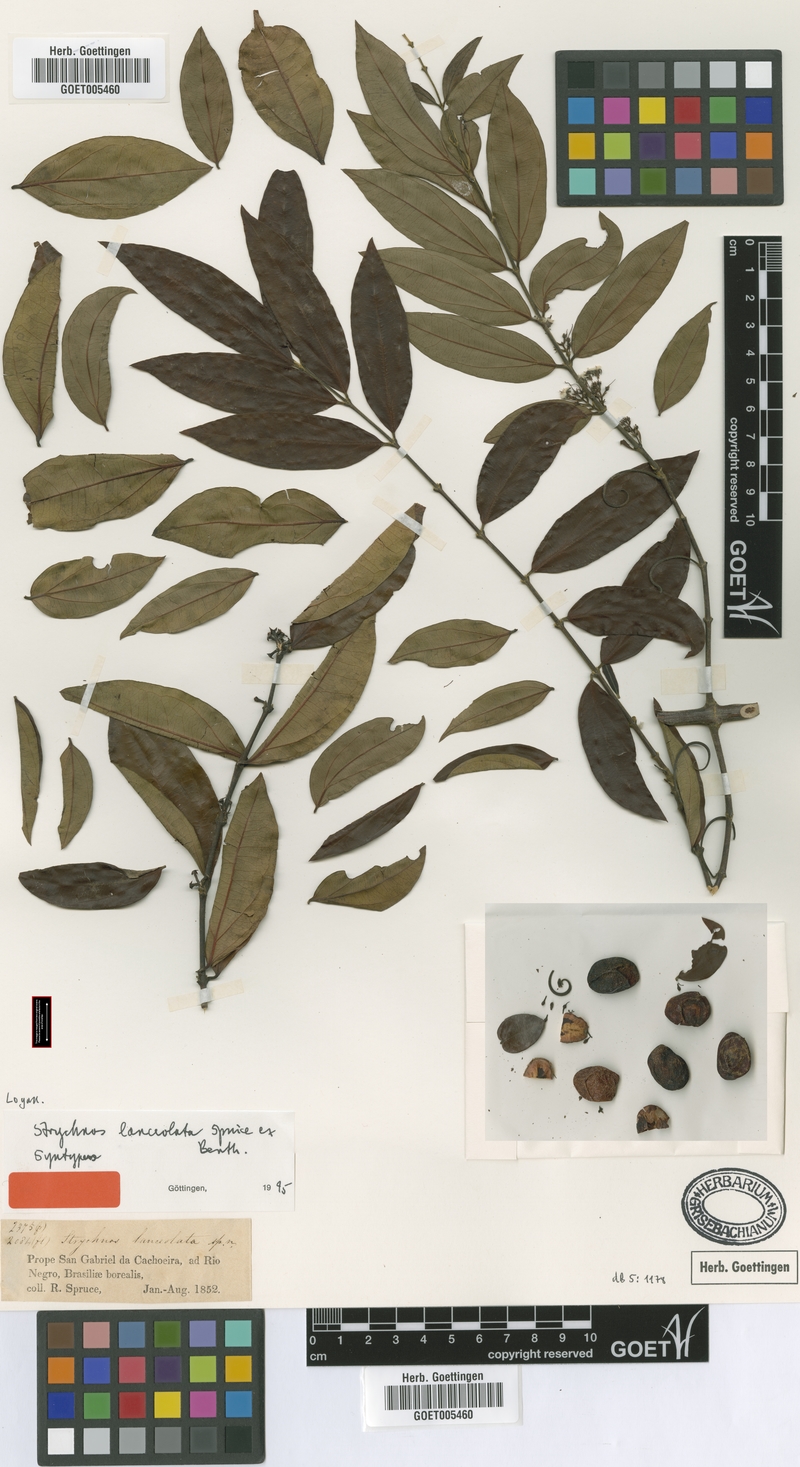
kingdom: Plantae
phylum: Tracheophyta
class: Magnoliopsida
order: Gentianales
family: Loganiaceae
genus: Strychnos
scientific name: Strychnos guianensis
